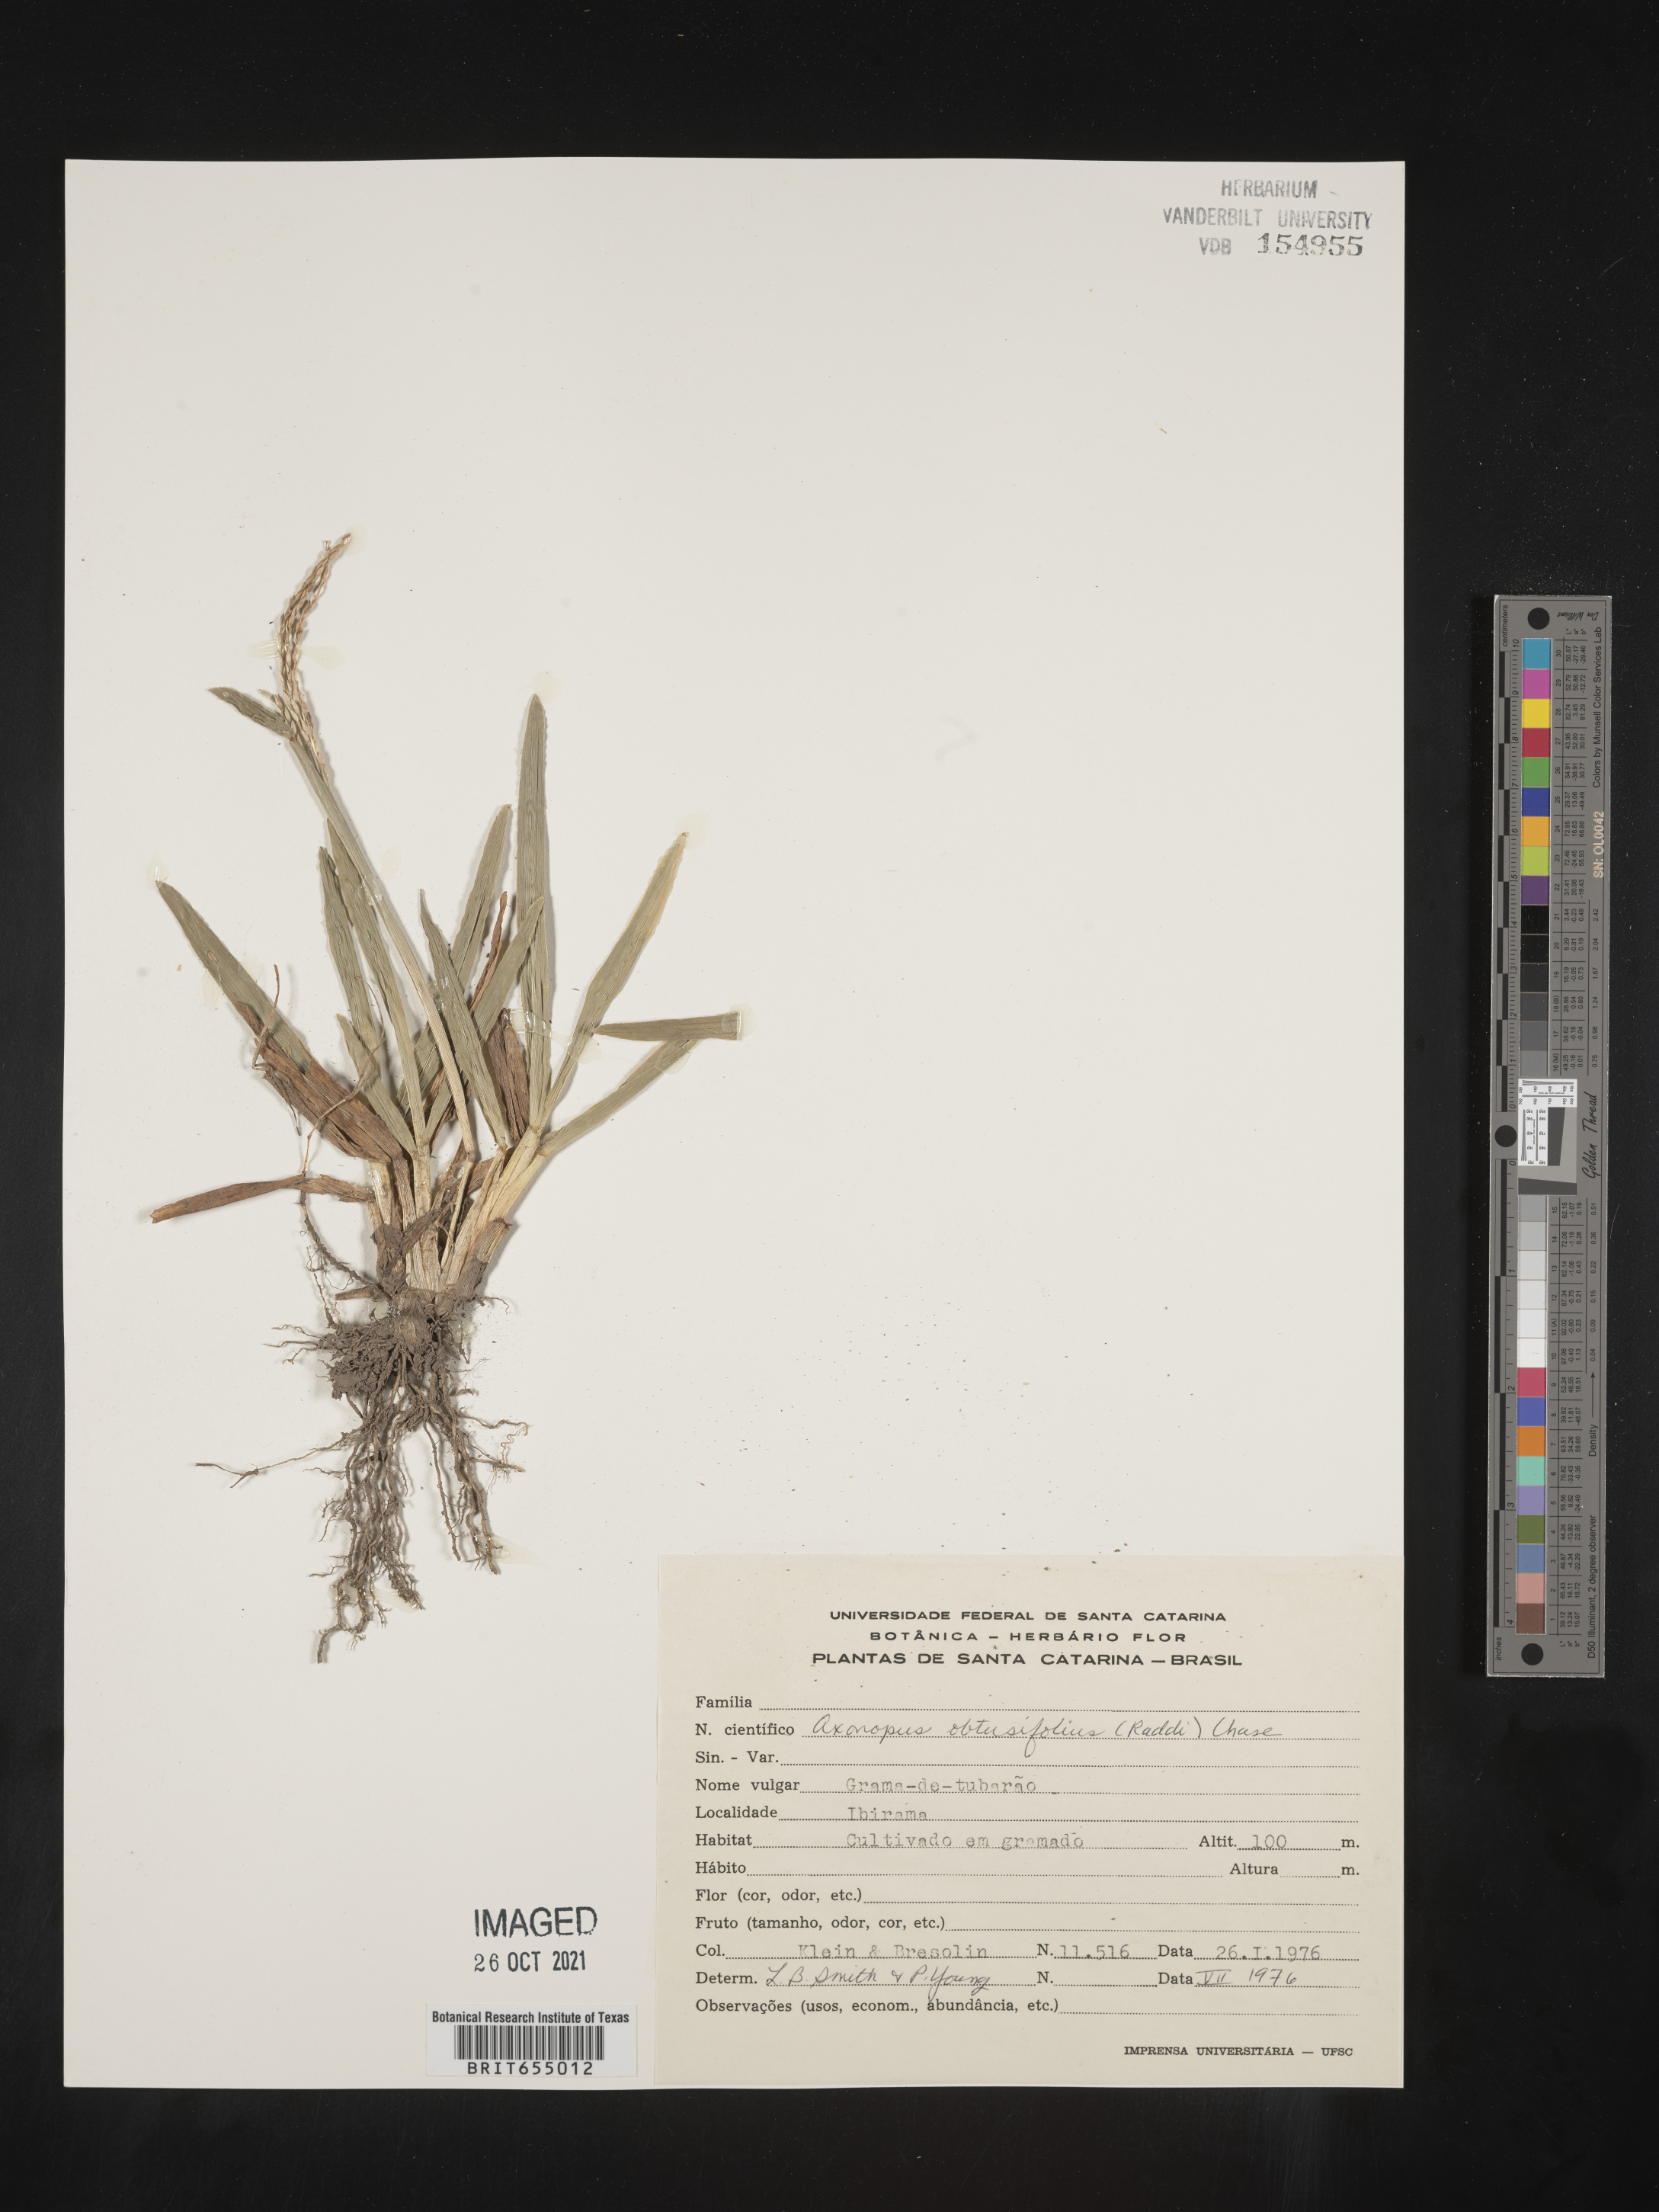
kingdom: Plantae
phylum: Tracheophyta
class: Liliopsida
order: Poales
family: Poaceae
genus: Axonopus
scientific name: Axonopus
